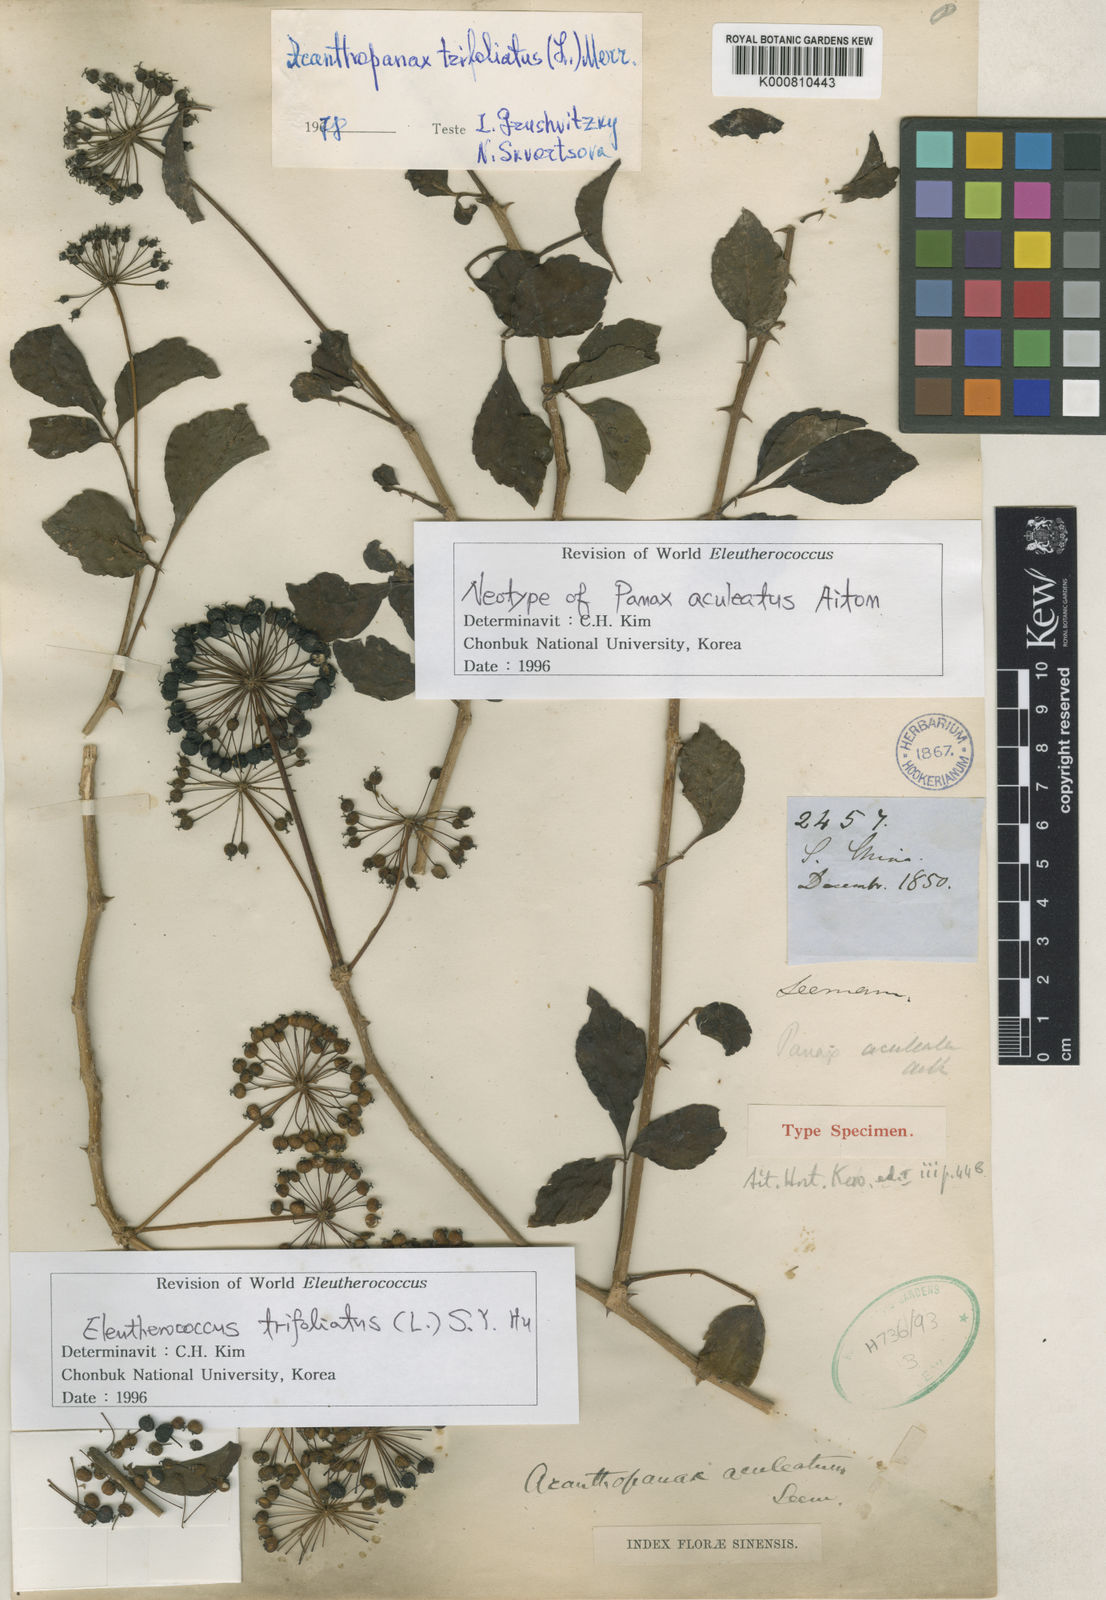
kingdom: Plantae
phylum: Tracheophyta
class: Magnoliopsida
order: Apiales
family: Araliaceae
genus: Eleutherococcus
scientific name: Eleutherococcus trifoliatus
